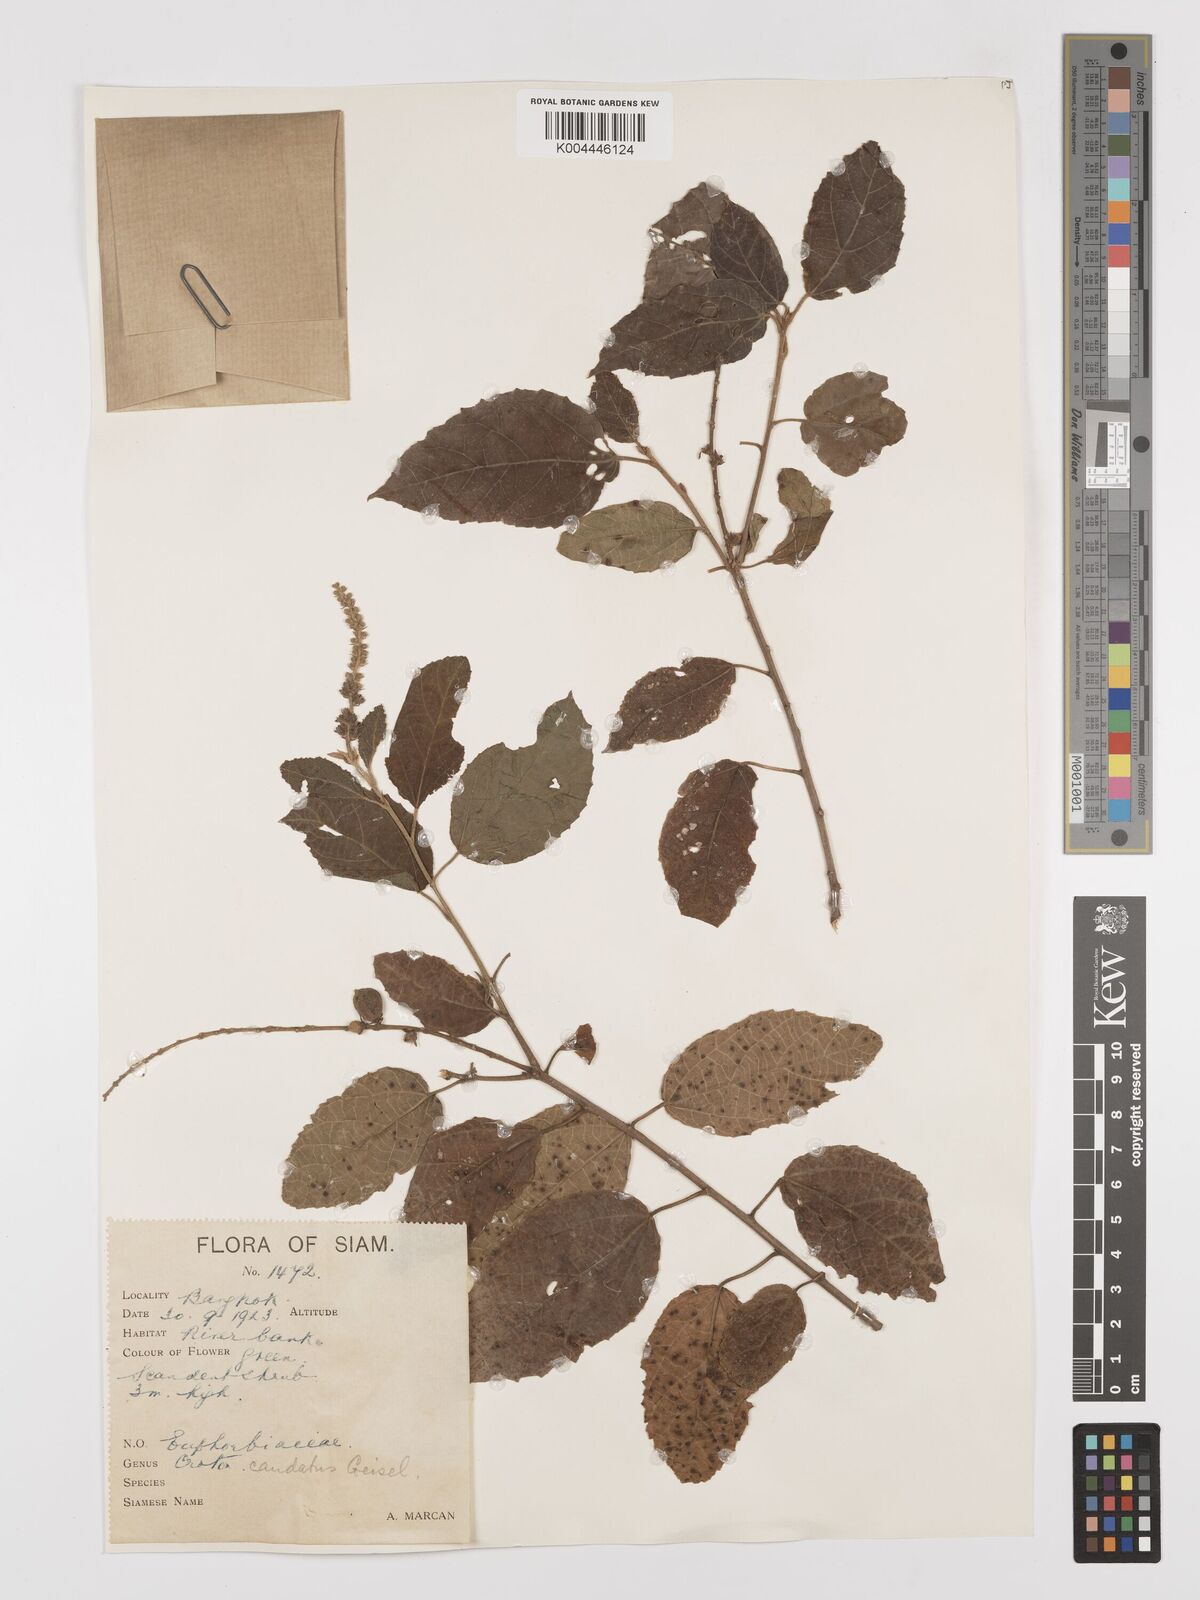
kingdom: Plantae
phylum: Tracheophyta
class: Magnoliopsida
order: Malpighiales
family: Euphorbiaceae
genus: Croton
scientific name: Croton caudatus
